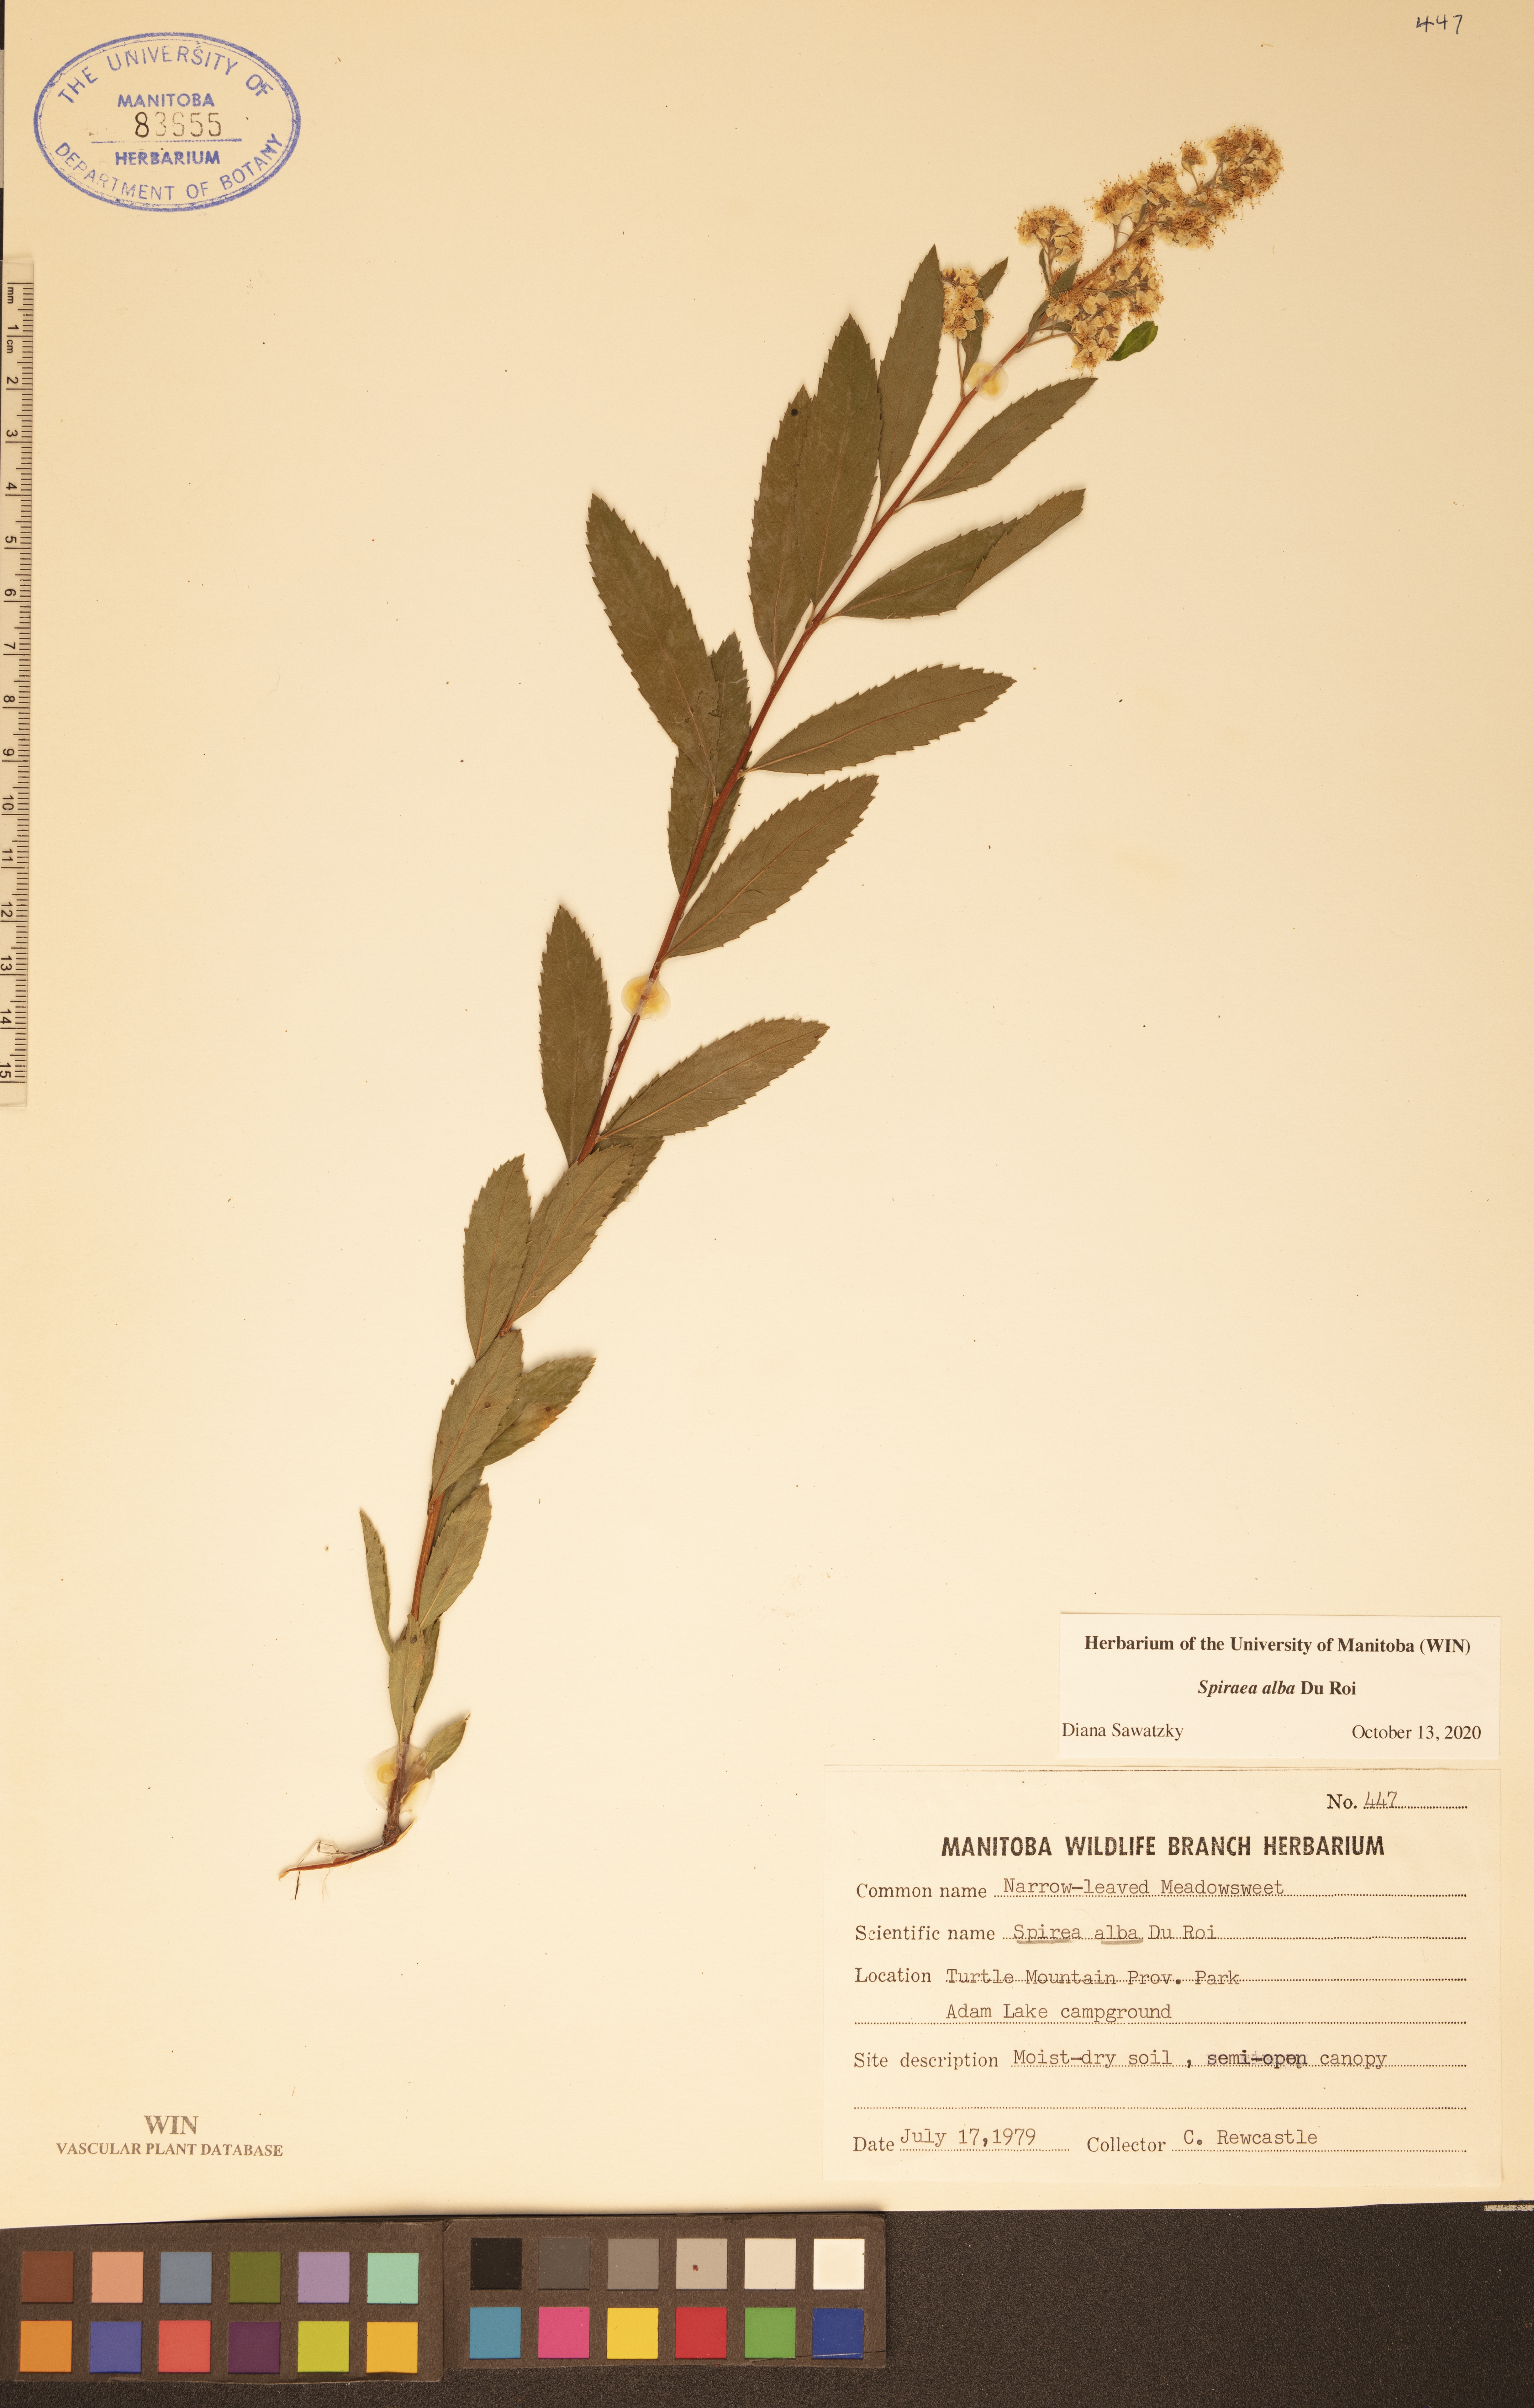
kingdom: Plantae
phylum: Tracheophyta
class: Magnoliopsida
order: Rosales
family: Rosaceae
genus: Spiraea
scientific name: Spiraea alba
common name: Pale bridewort
